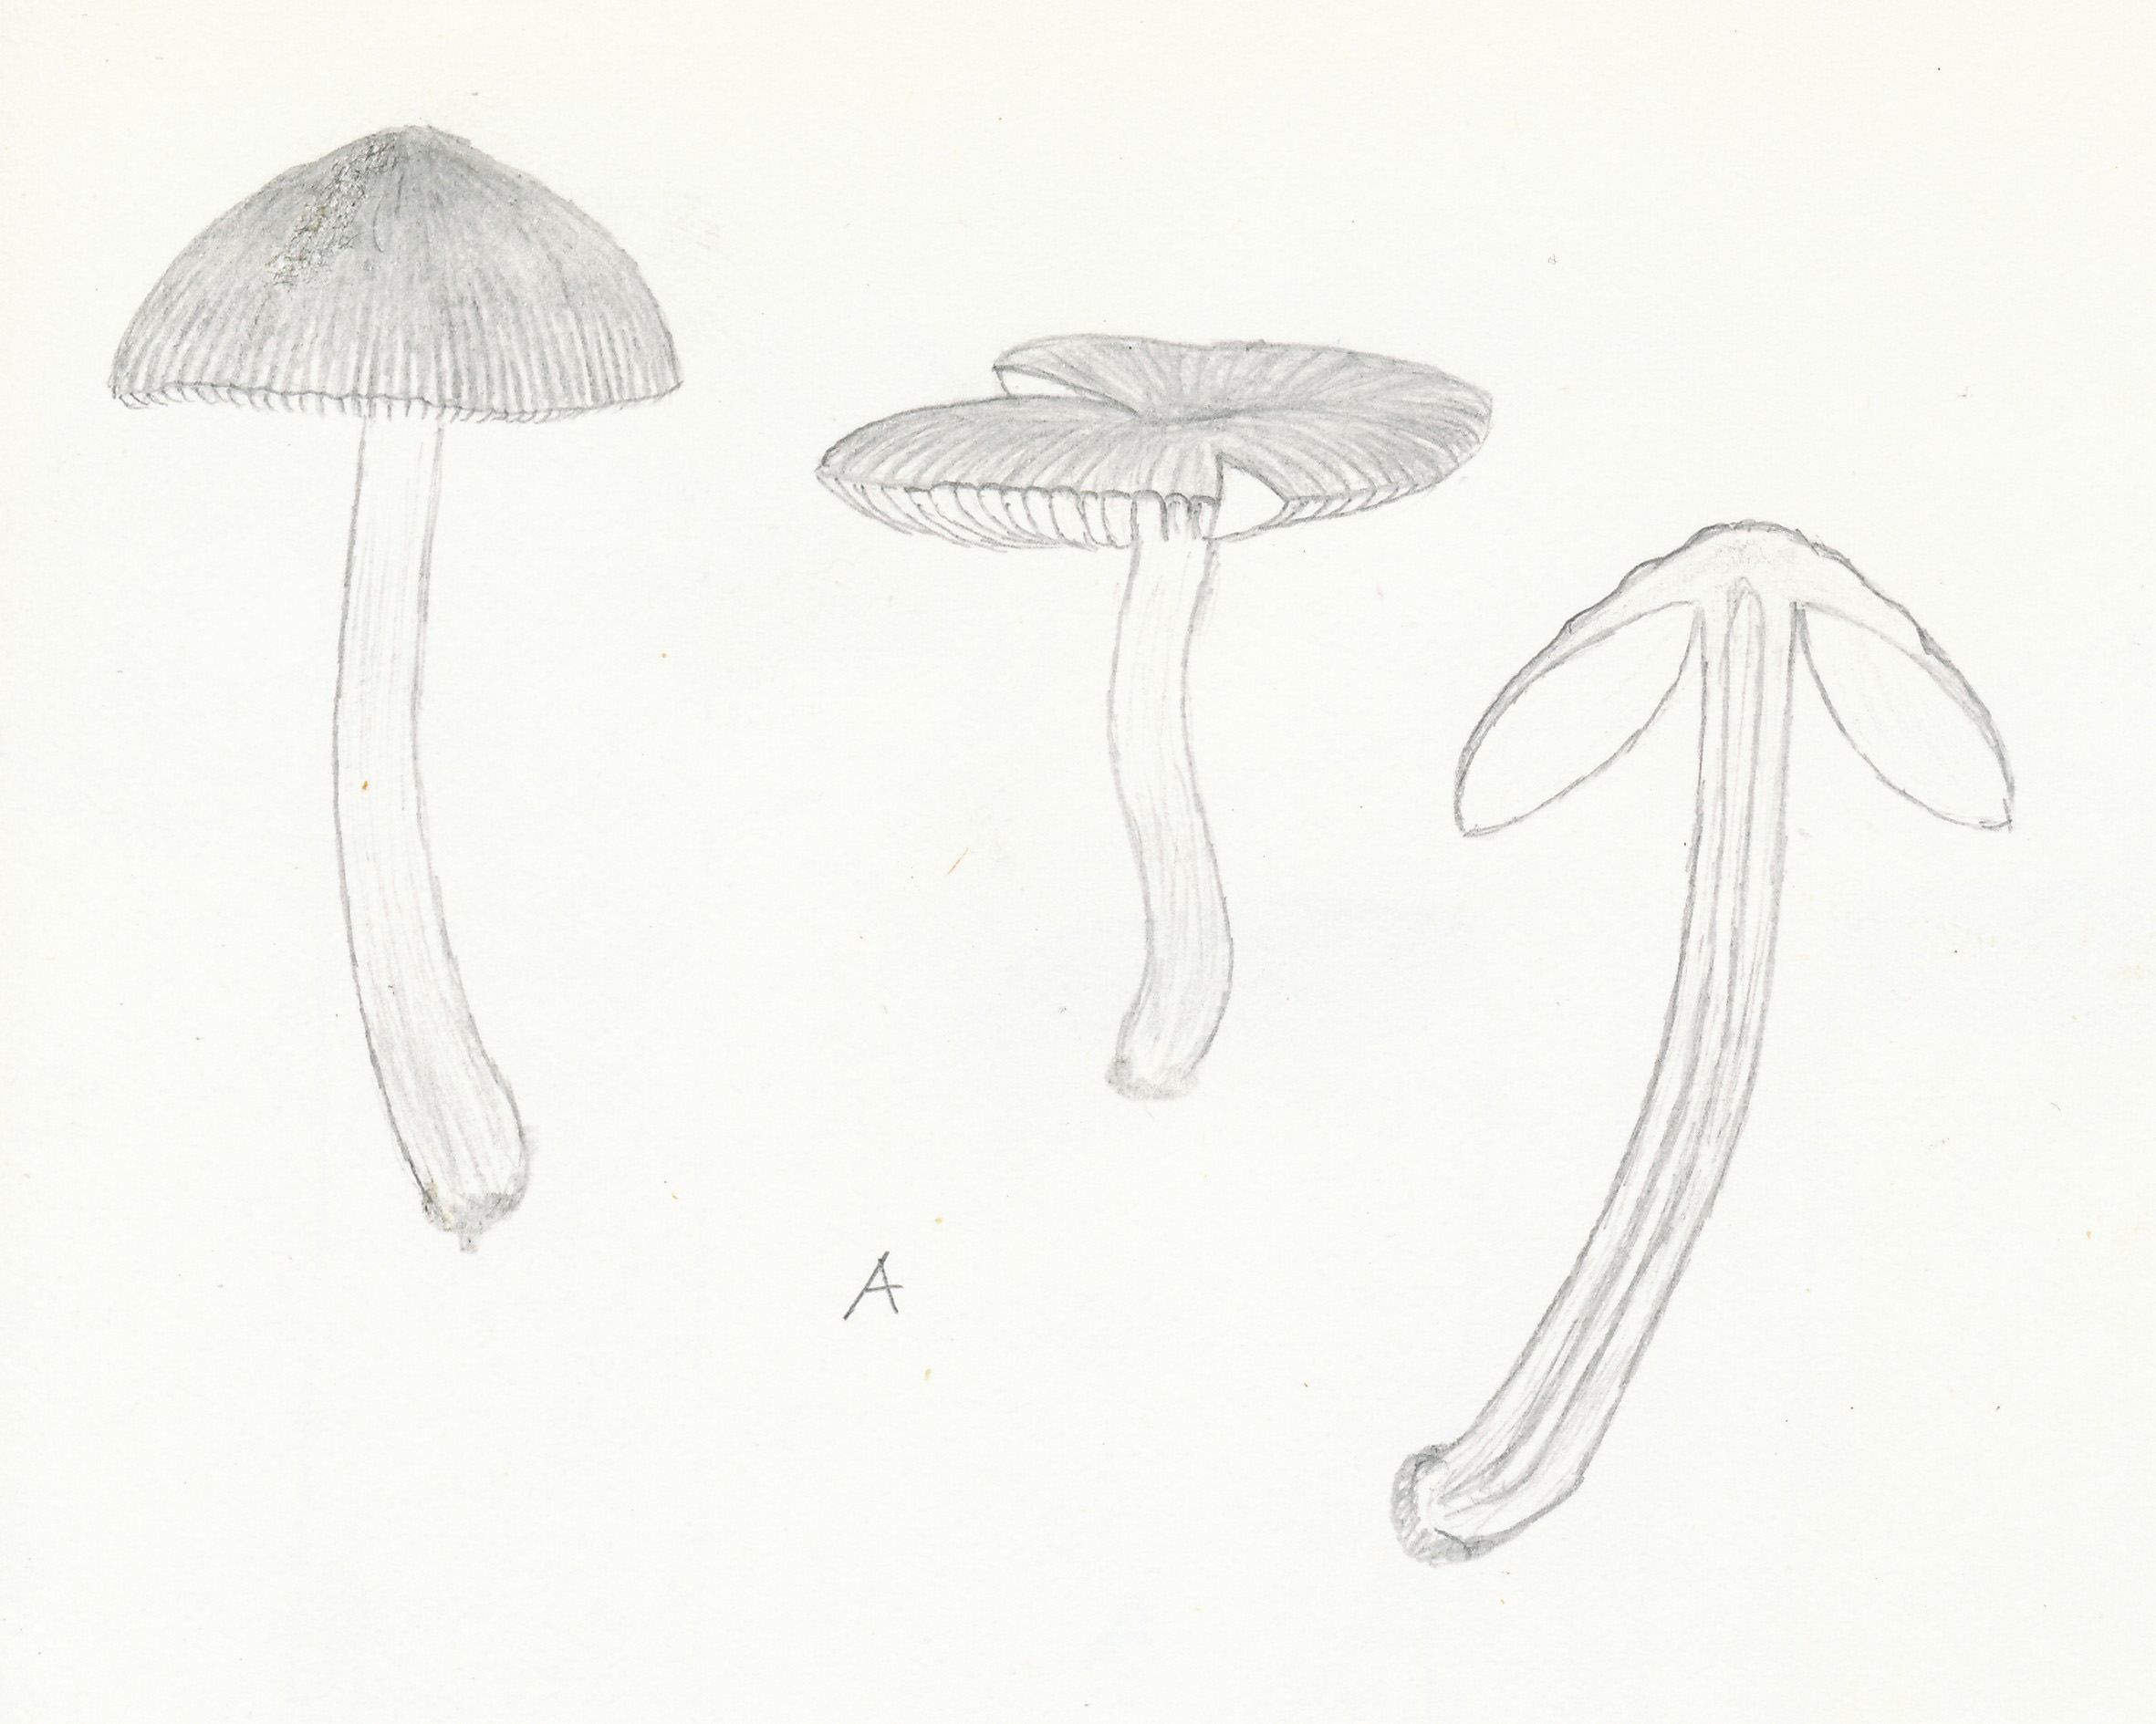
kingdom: Fungi
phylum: Basidiomycota
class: Agaricomycetes
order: Agaricales
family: Pluteaceae
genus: Pluteus
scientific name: Pluteus
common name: pudret skærmhat
